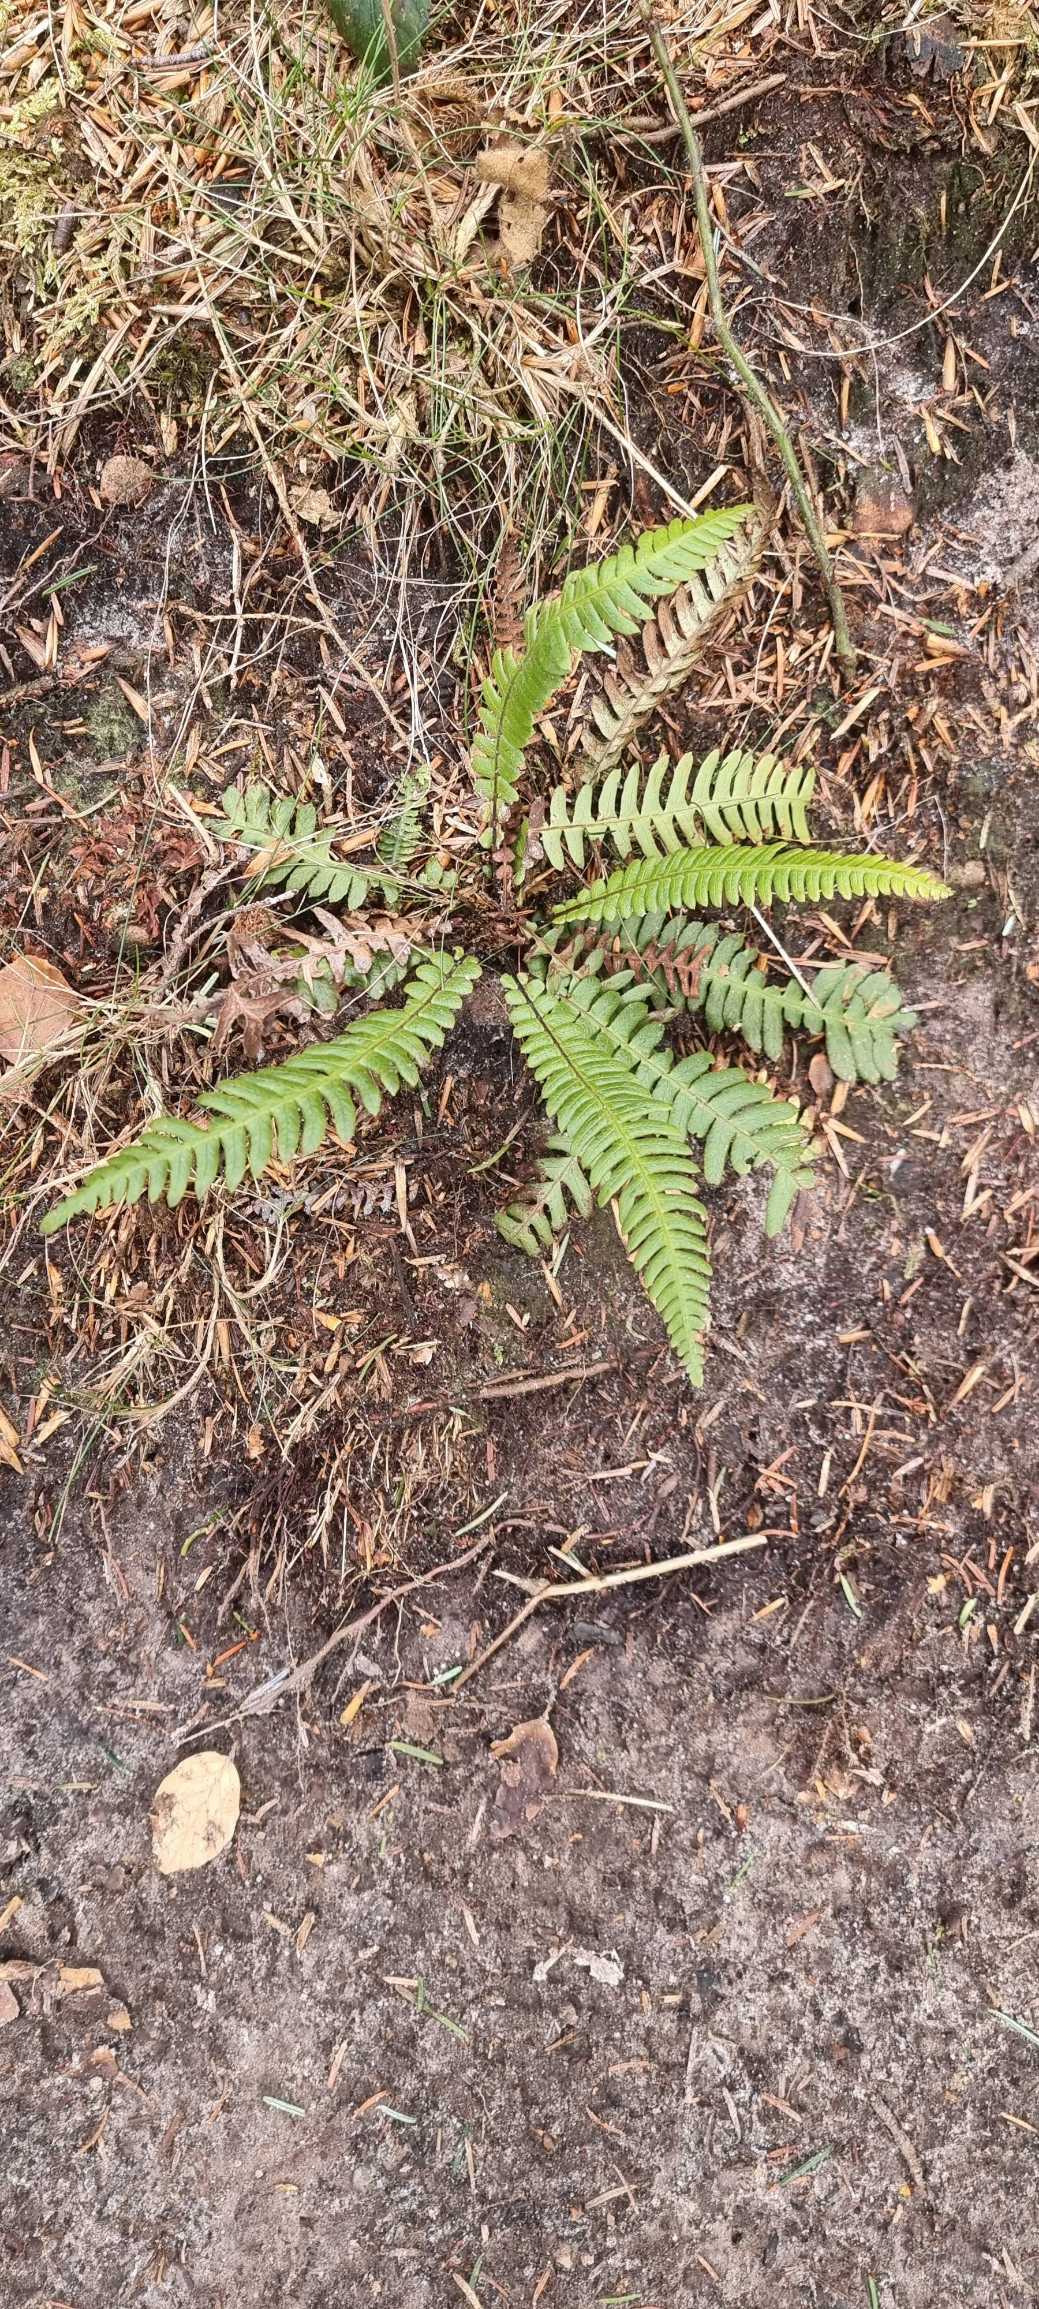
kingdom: Plantae
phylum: Tracheophyta
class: Polypodiopsida
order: Polypodiales
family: Blechnaceae
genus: Struthiopteris
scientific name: Struthiopteris spicant
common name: Kambregne
